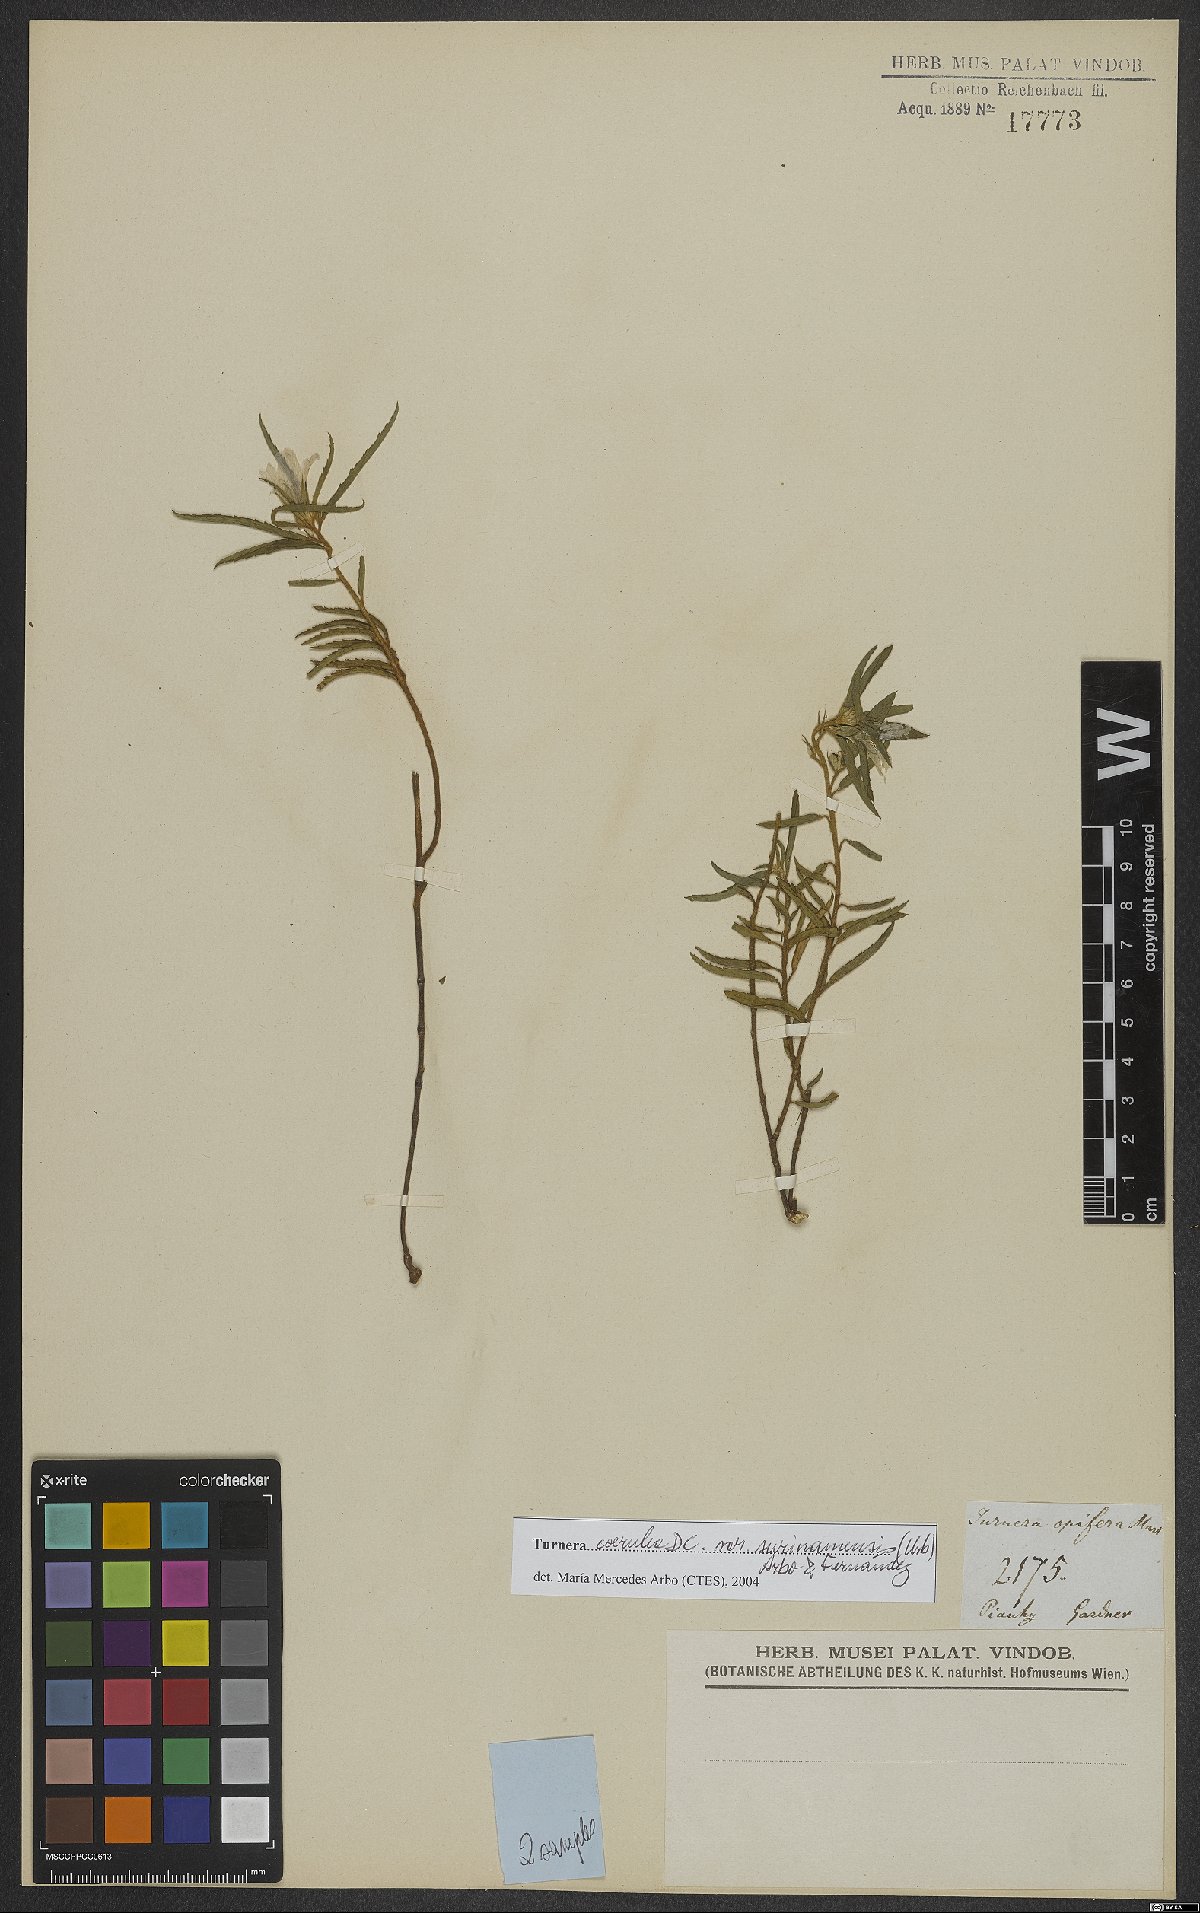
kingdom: Plantae
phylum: Tracheophyta
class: Magnoliopsida
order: Malpighiales
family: Turneraceae
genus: Turnera
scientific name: Turnera coerulea
